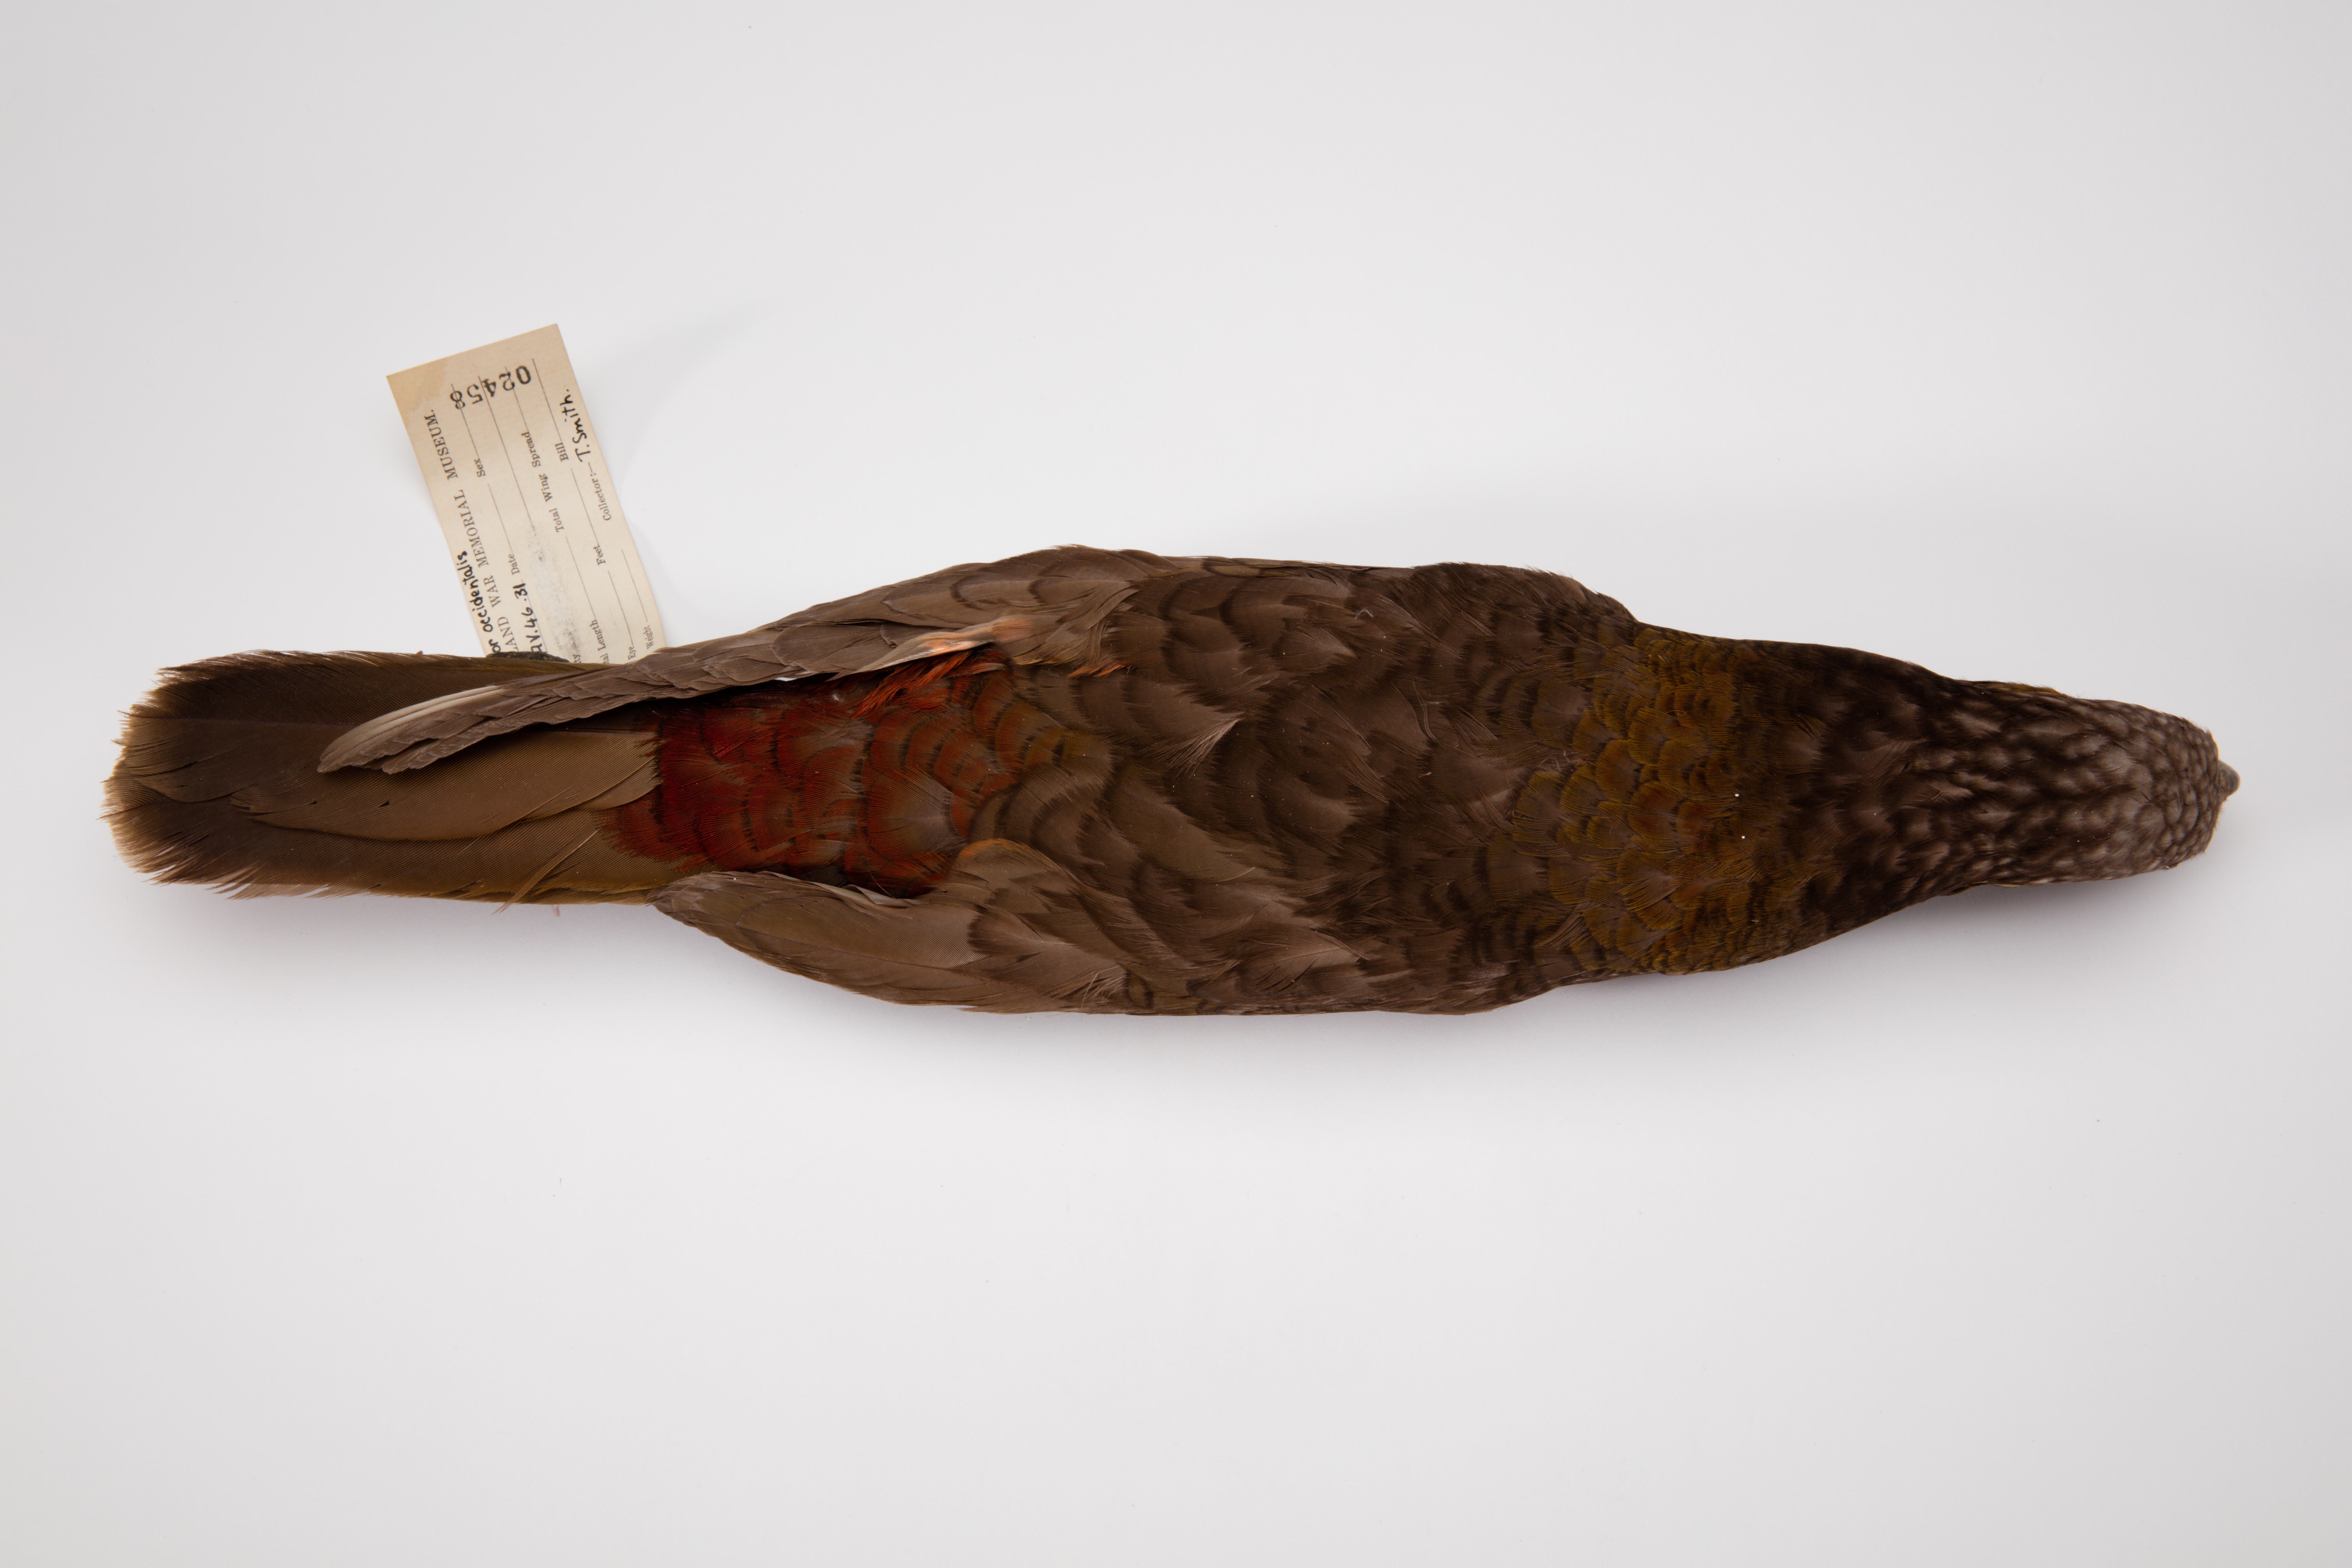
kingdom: Animalia
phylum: Chordata
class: Aves
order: Psittaciformes
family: Psittacidae
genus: Nestor
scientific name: Nestor meridionalis
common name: New zealand kaka
